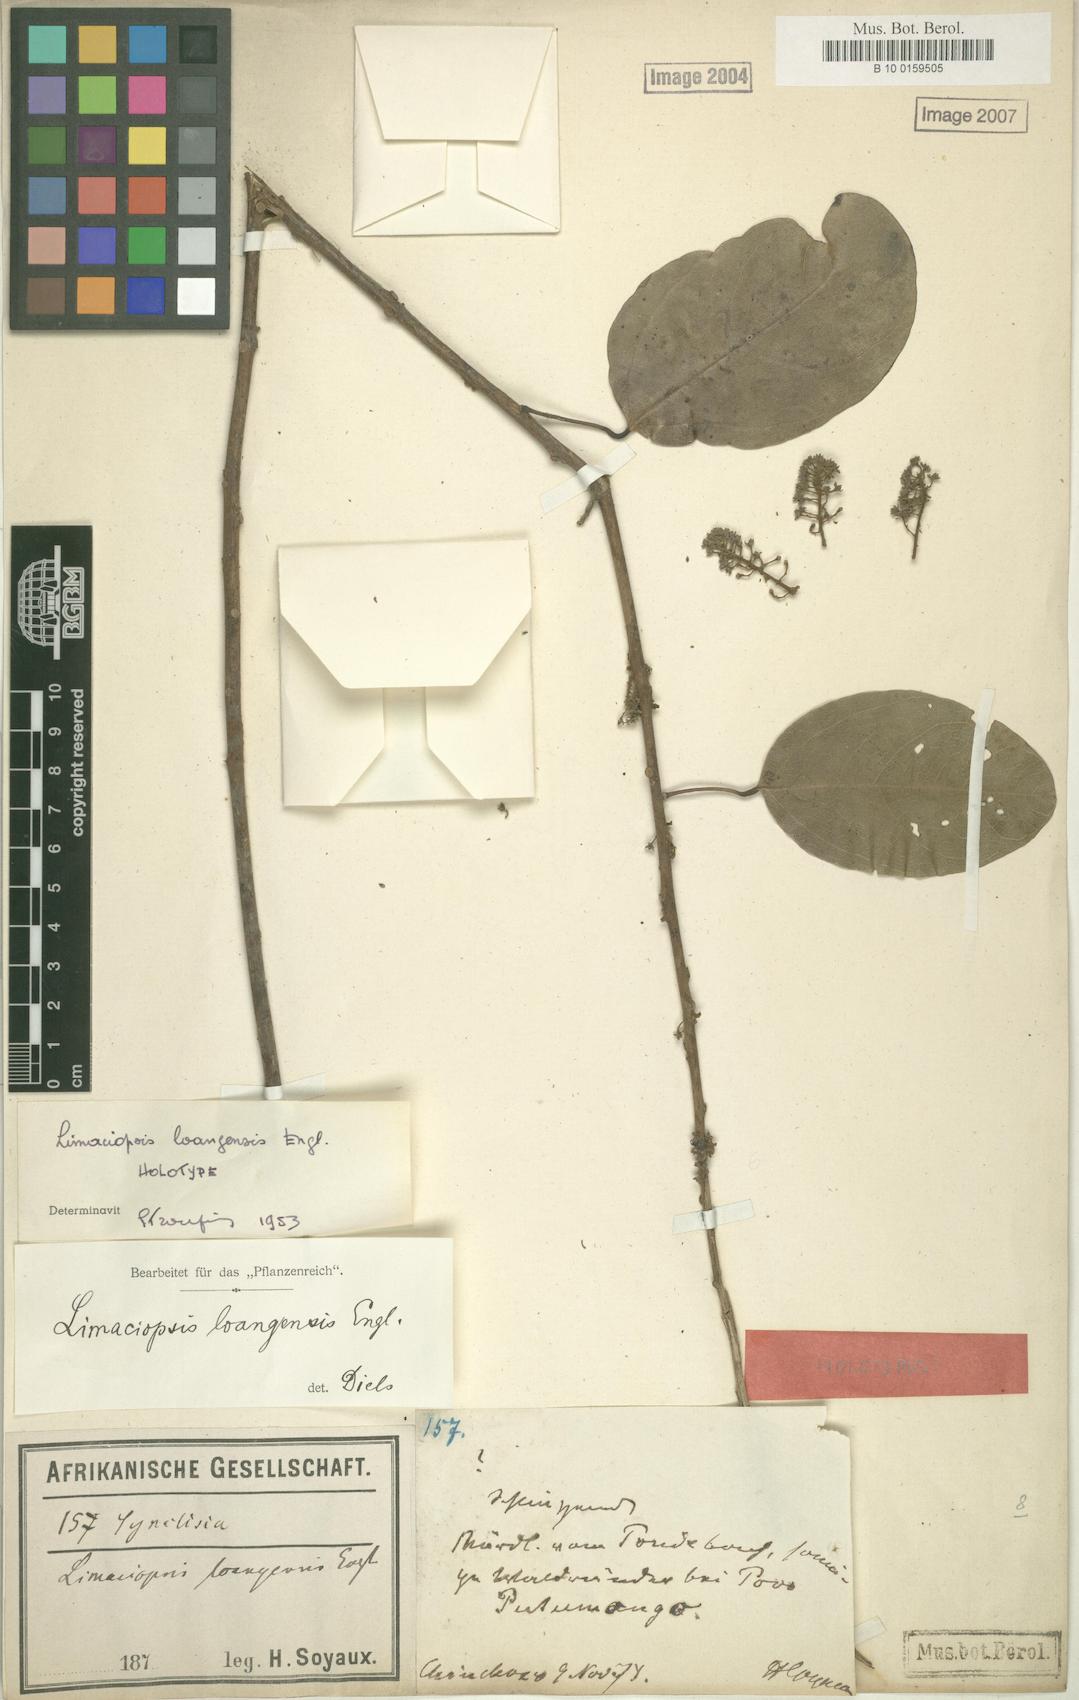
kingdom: Plantae
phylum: Tracheophyta
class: Magnoliopsida
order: Ranunculales
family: Menispermaceae
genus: Limaciopsis
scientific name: Limaciopsis loangensis
